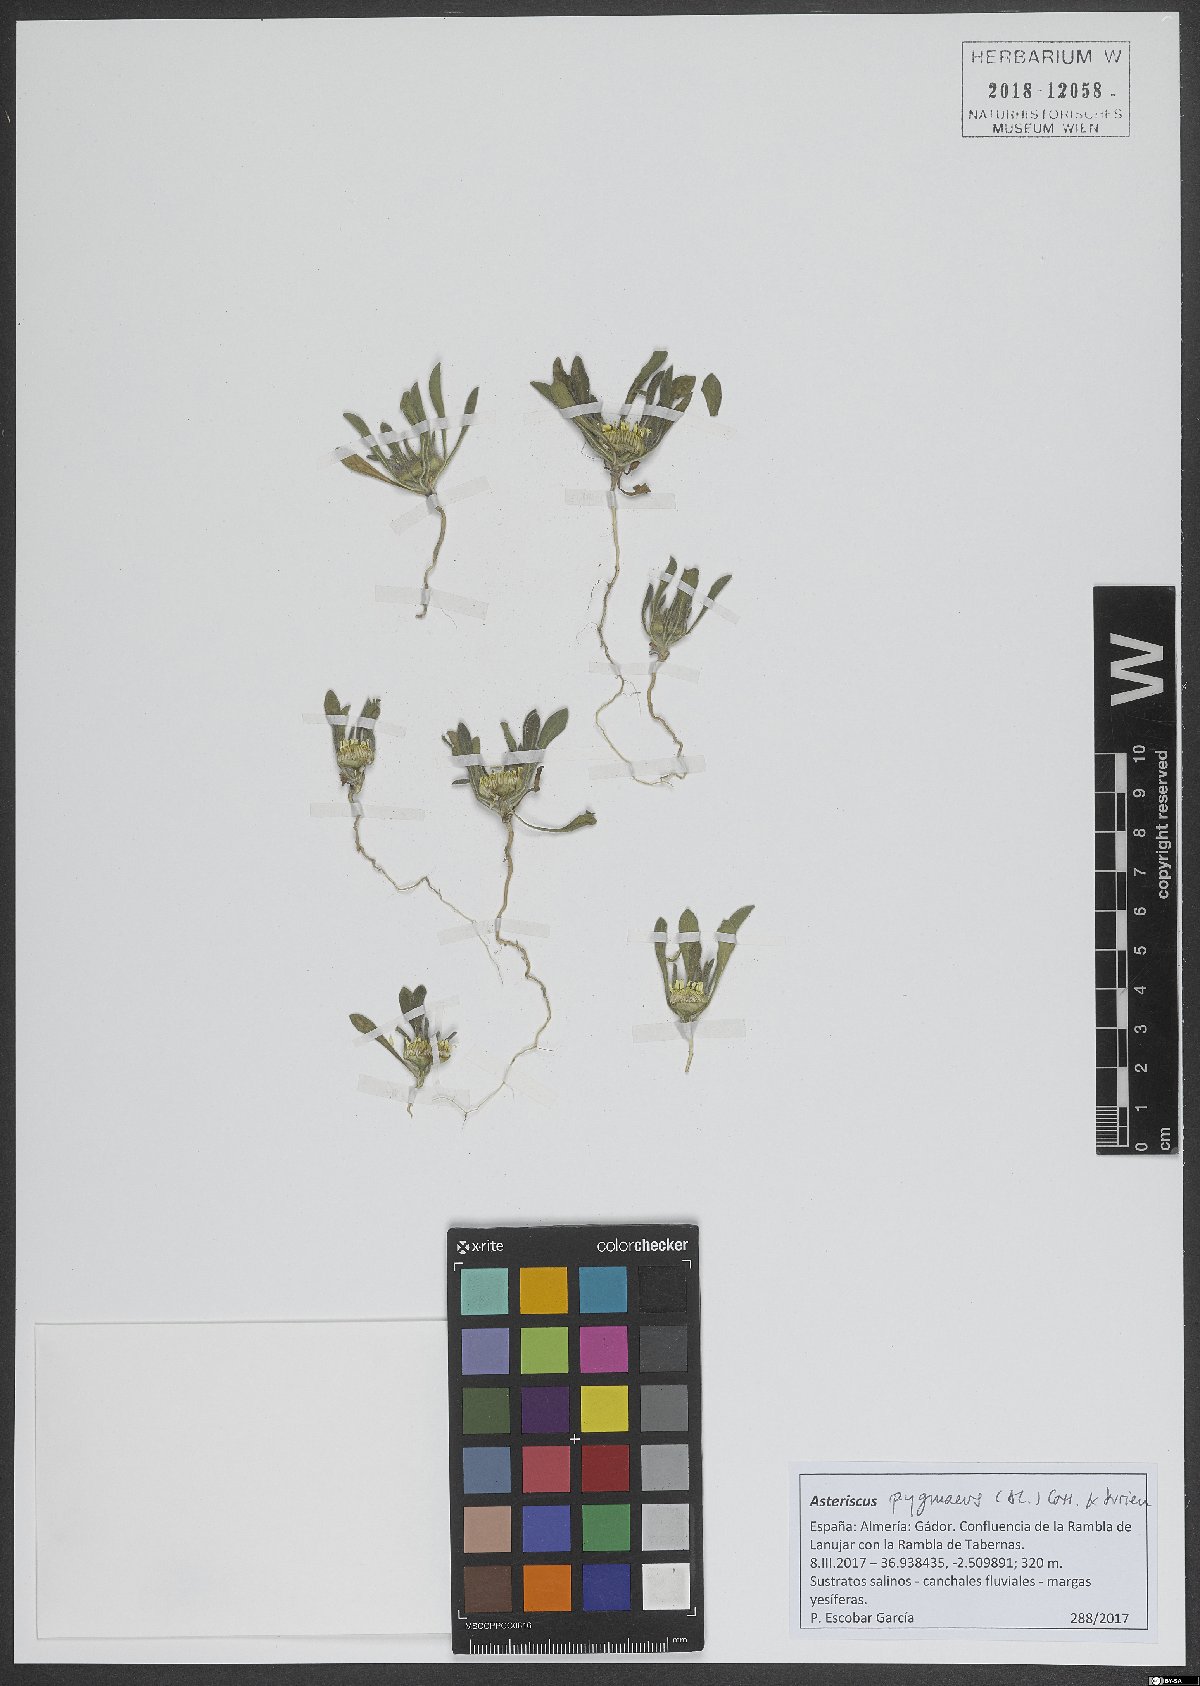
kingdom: Plantae
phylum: Tracheophyta
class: Magnoliopsida
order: Asterales
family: Asteraceae
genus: Pallenis
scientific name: Pallenis hierochuntica
